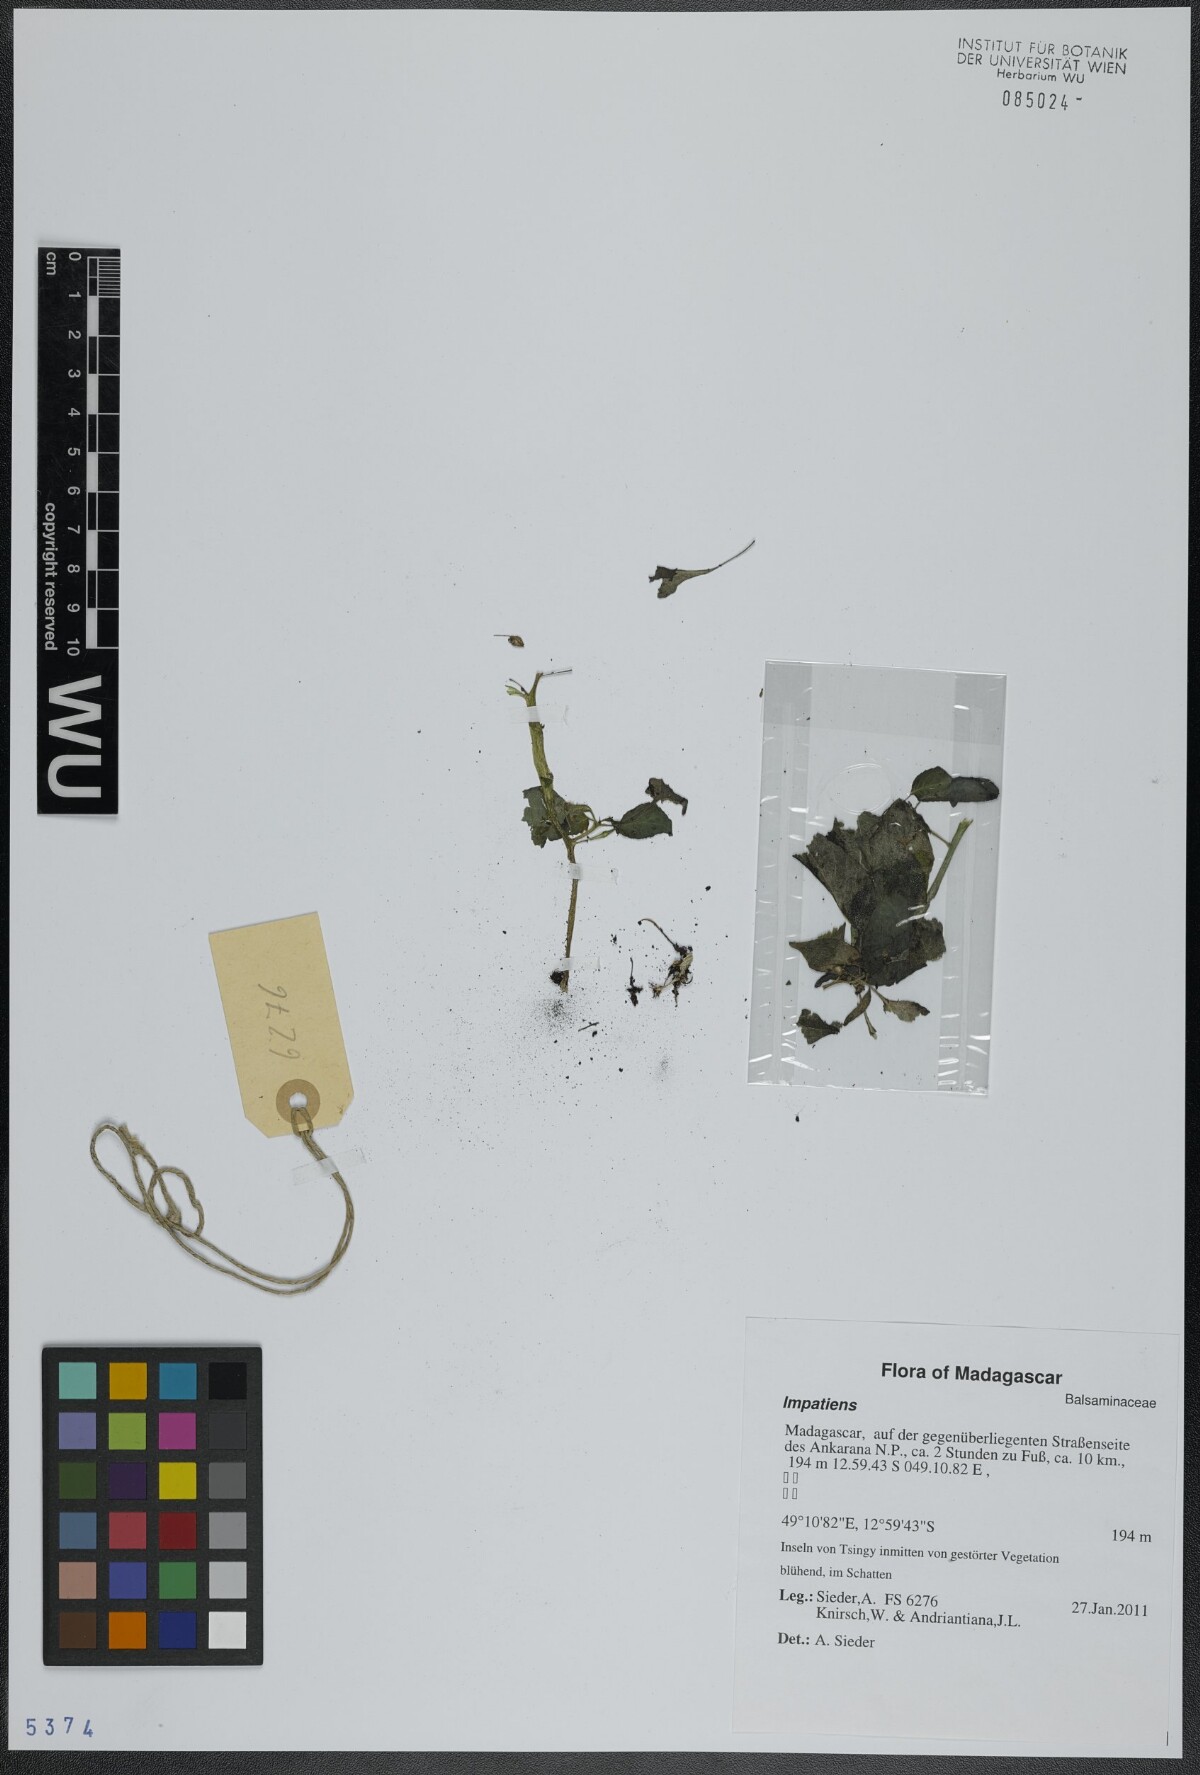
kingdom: Plantae
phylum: Tracheophyta
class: Magnoliopsida
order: Ericales
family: Balsaminaceae
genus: Impatiens
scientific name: Impatiens
